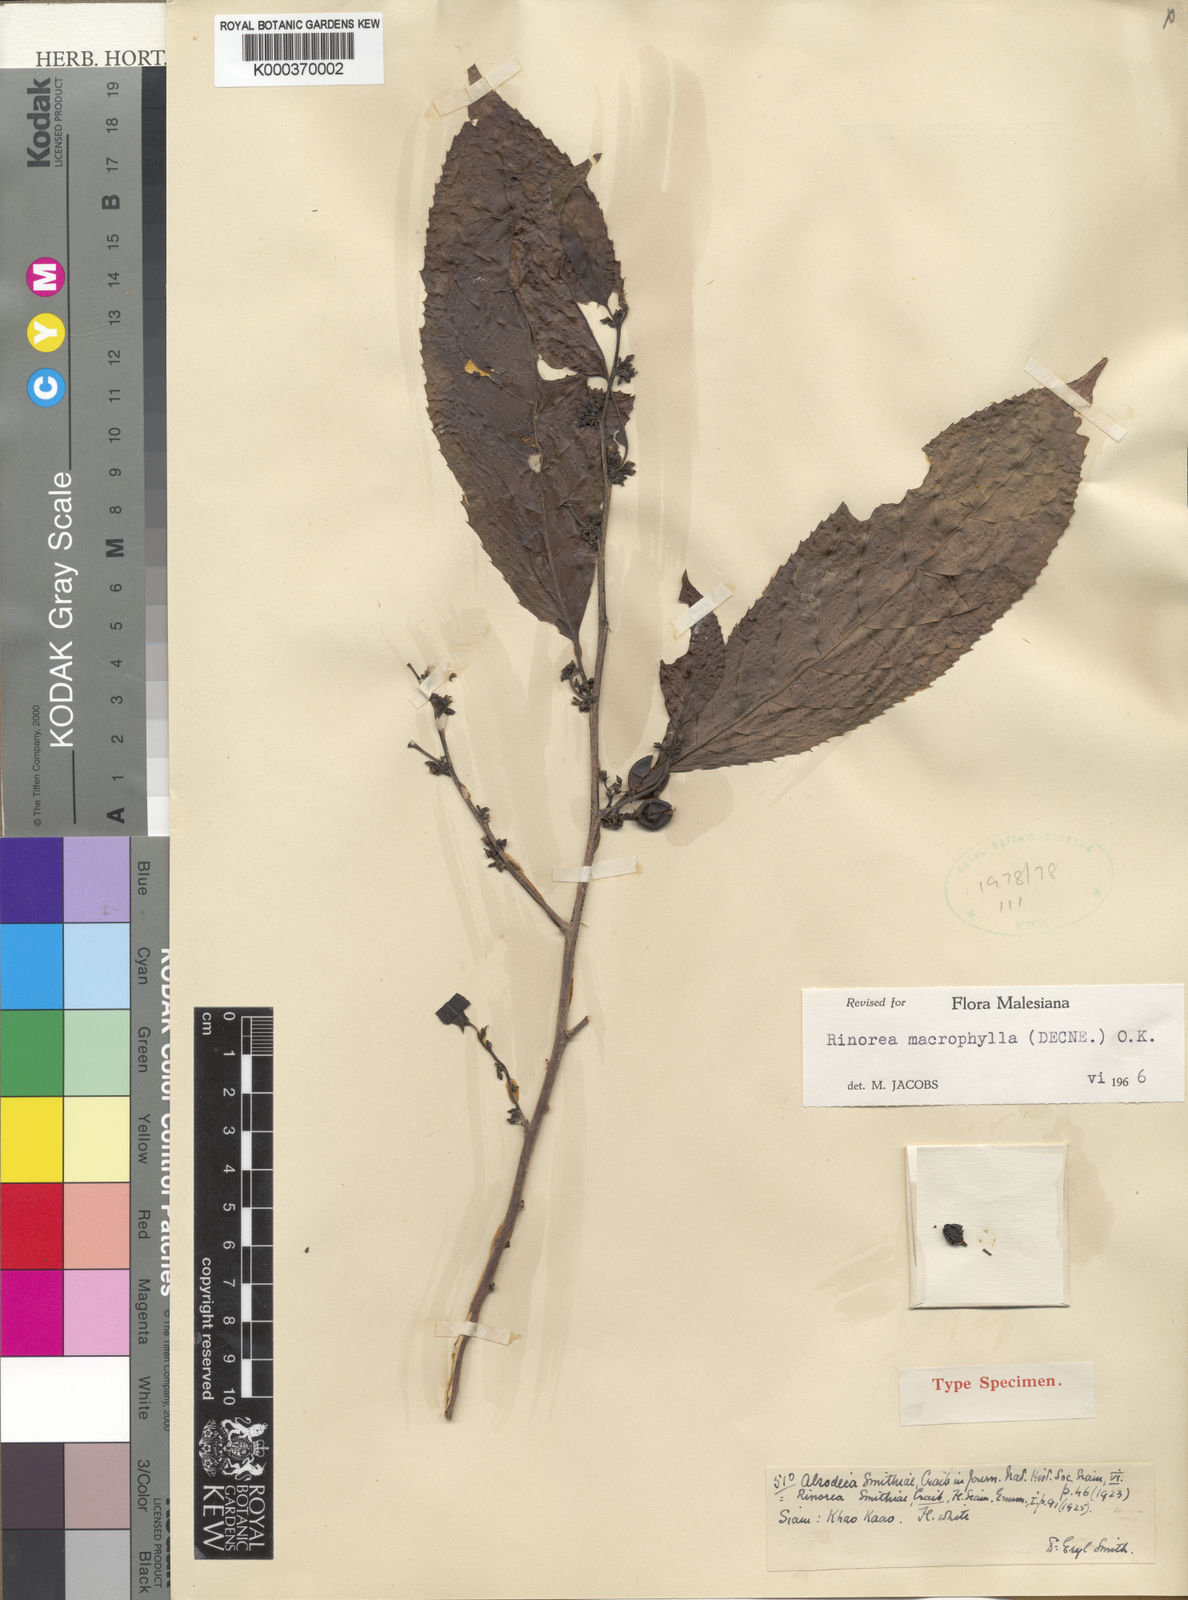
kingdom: Plantae
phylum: Tracheophyta
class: Magnoliopsida
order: Malpighiales
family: Violaceae
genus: Rinorea
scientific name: Rinorea macrophylla
